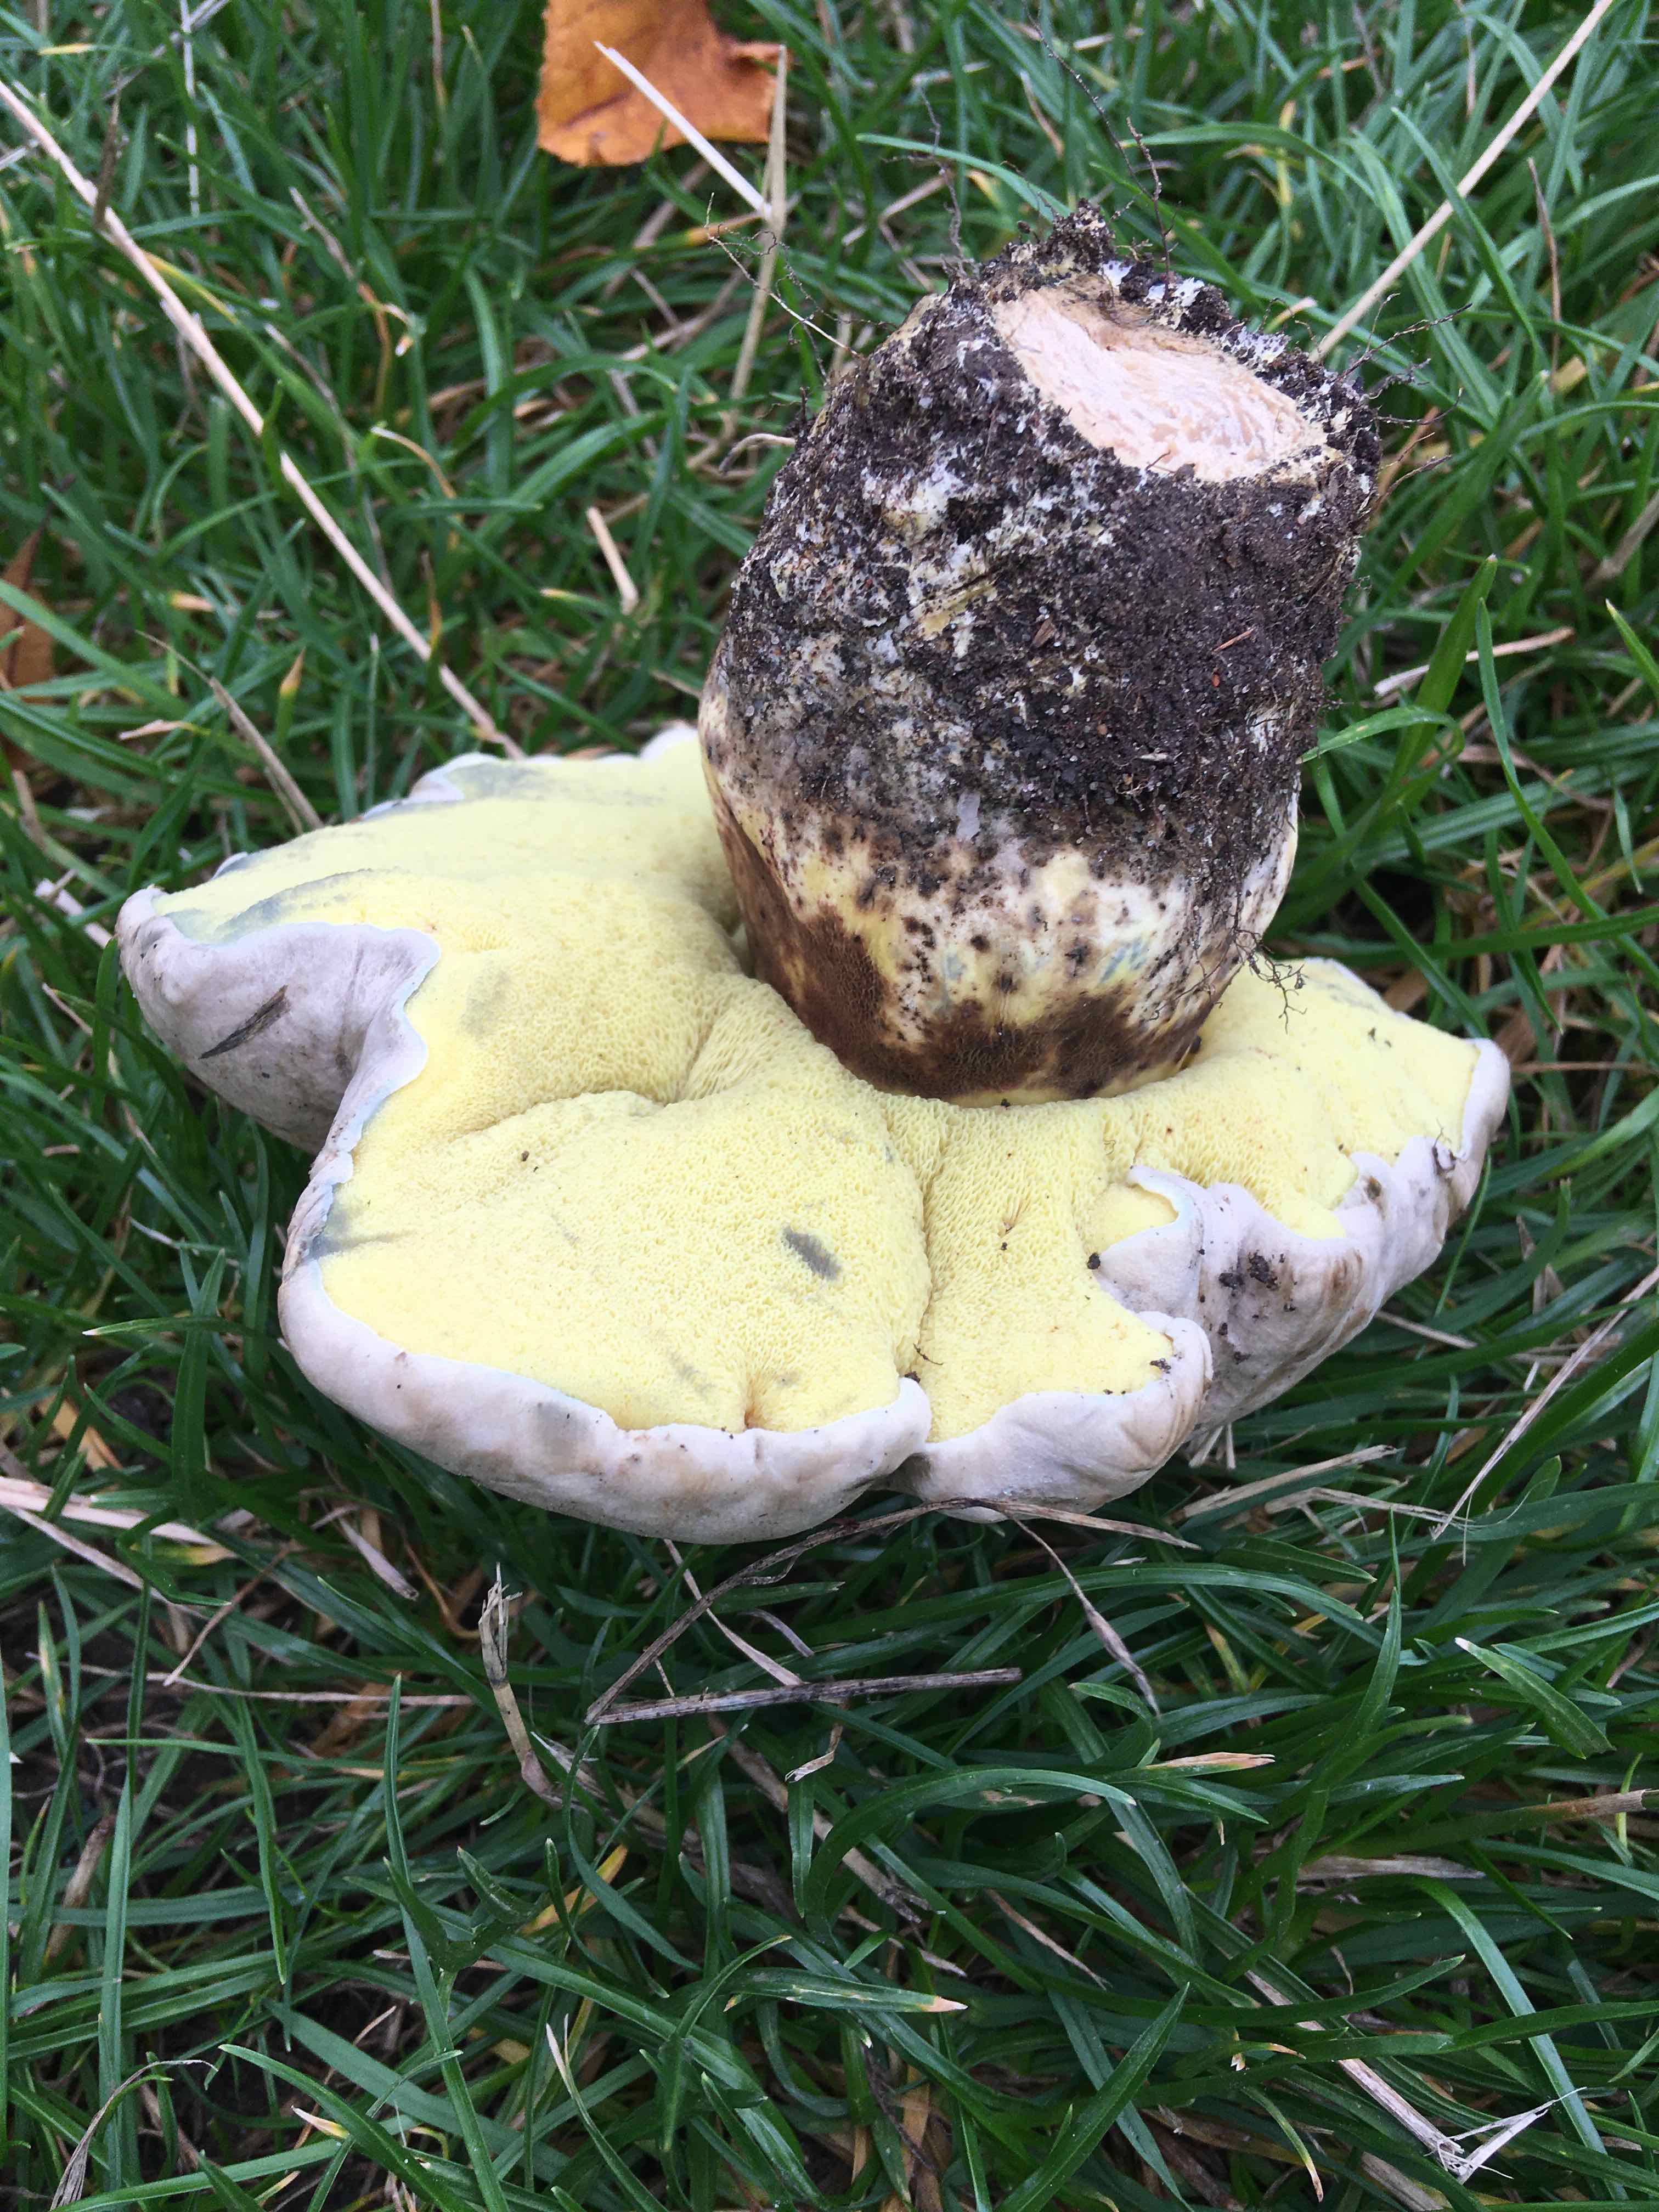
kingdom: Fungi
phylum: Basidiomycota
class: Agaricomycetes
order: Boletales
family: Boletaceae
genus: Caloboletus
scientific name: Caloboletus radicans
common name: rod-rørhat
